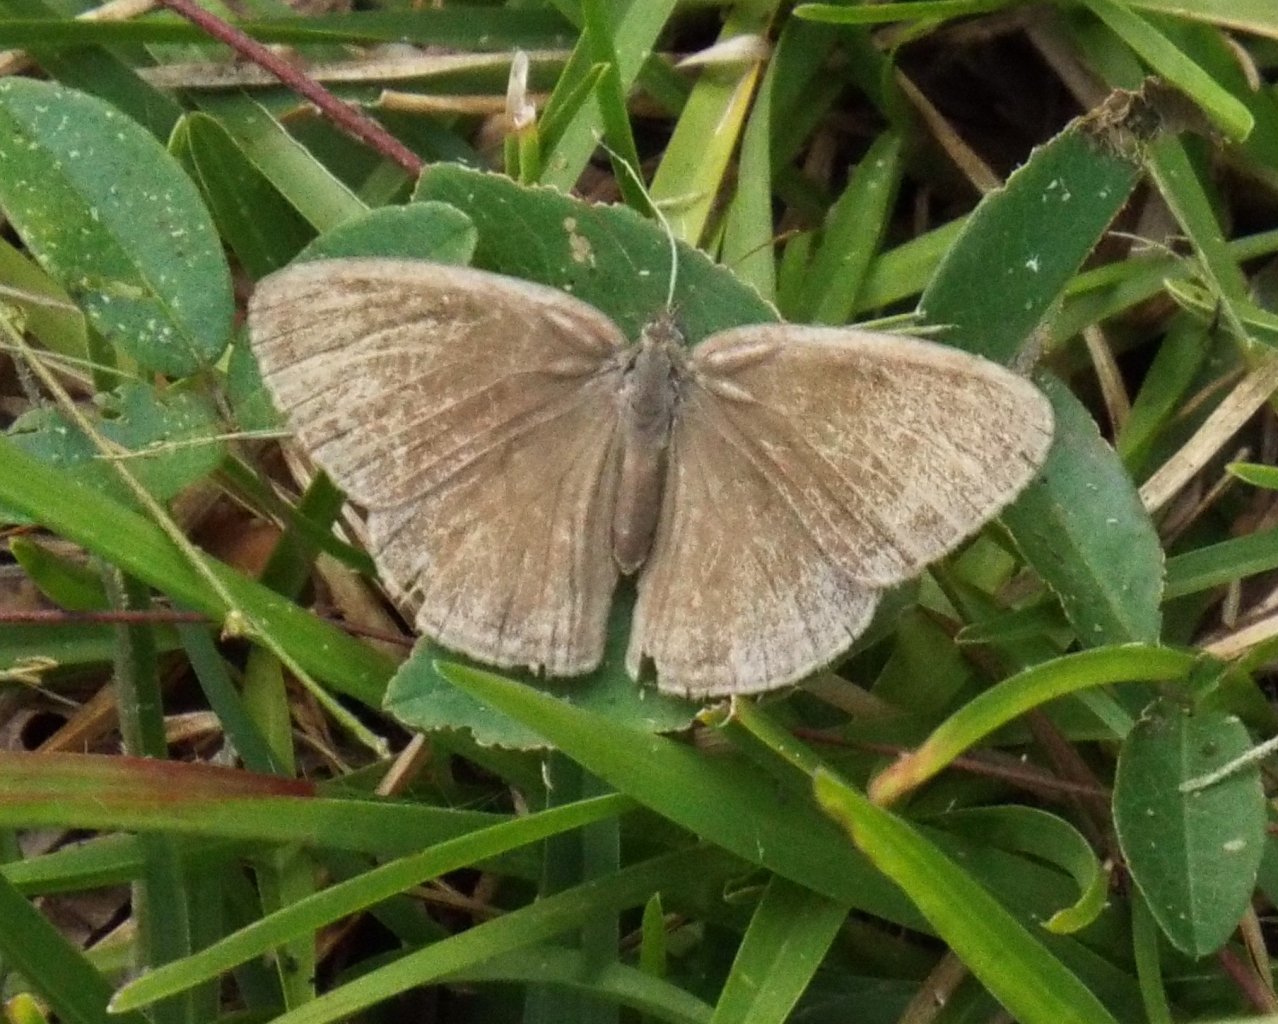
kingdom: Animalia
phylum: Arthropoda
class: Insecta
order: Lepidoptera
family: Nymphalidae
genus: Hermeuptychia
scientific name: Hermeuptychia hermes
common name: Carolina Satyr
